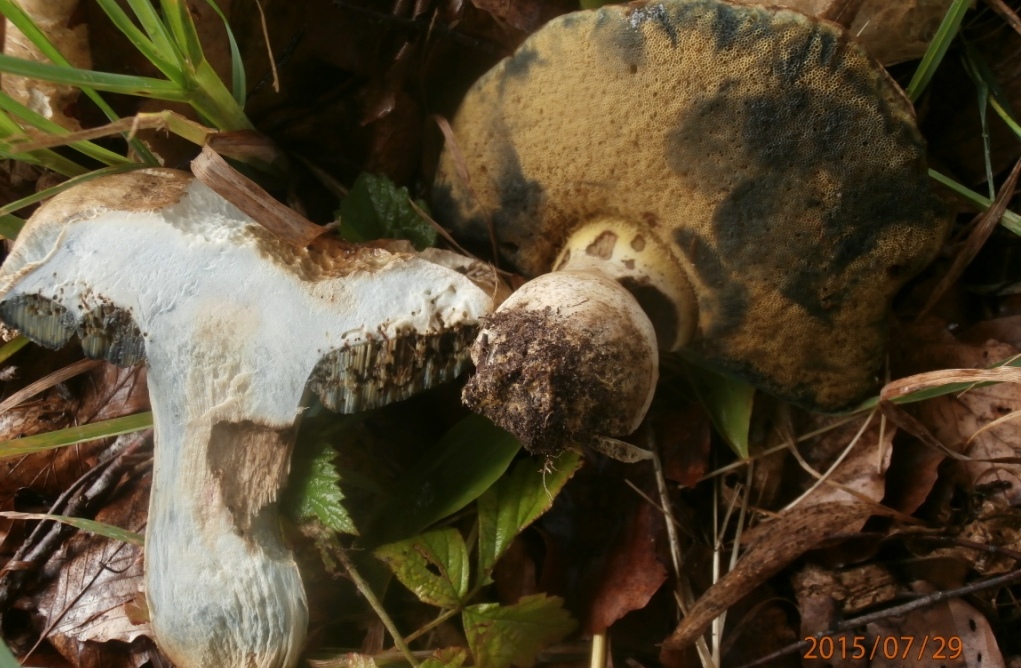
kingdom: Fungi
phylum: Basidiomycota
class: Agaricomycetes
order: Boletales
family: Boletaceae
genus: Caloboletus
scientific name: Caloboletus radicans
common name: rod-rørhat
